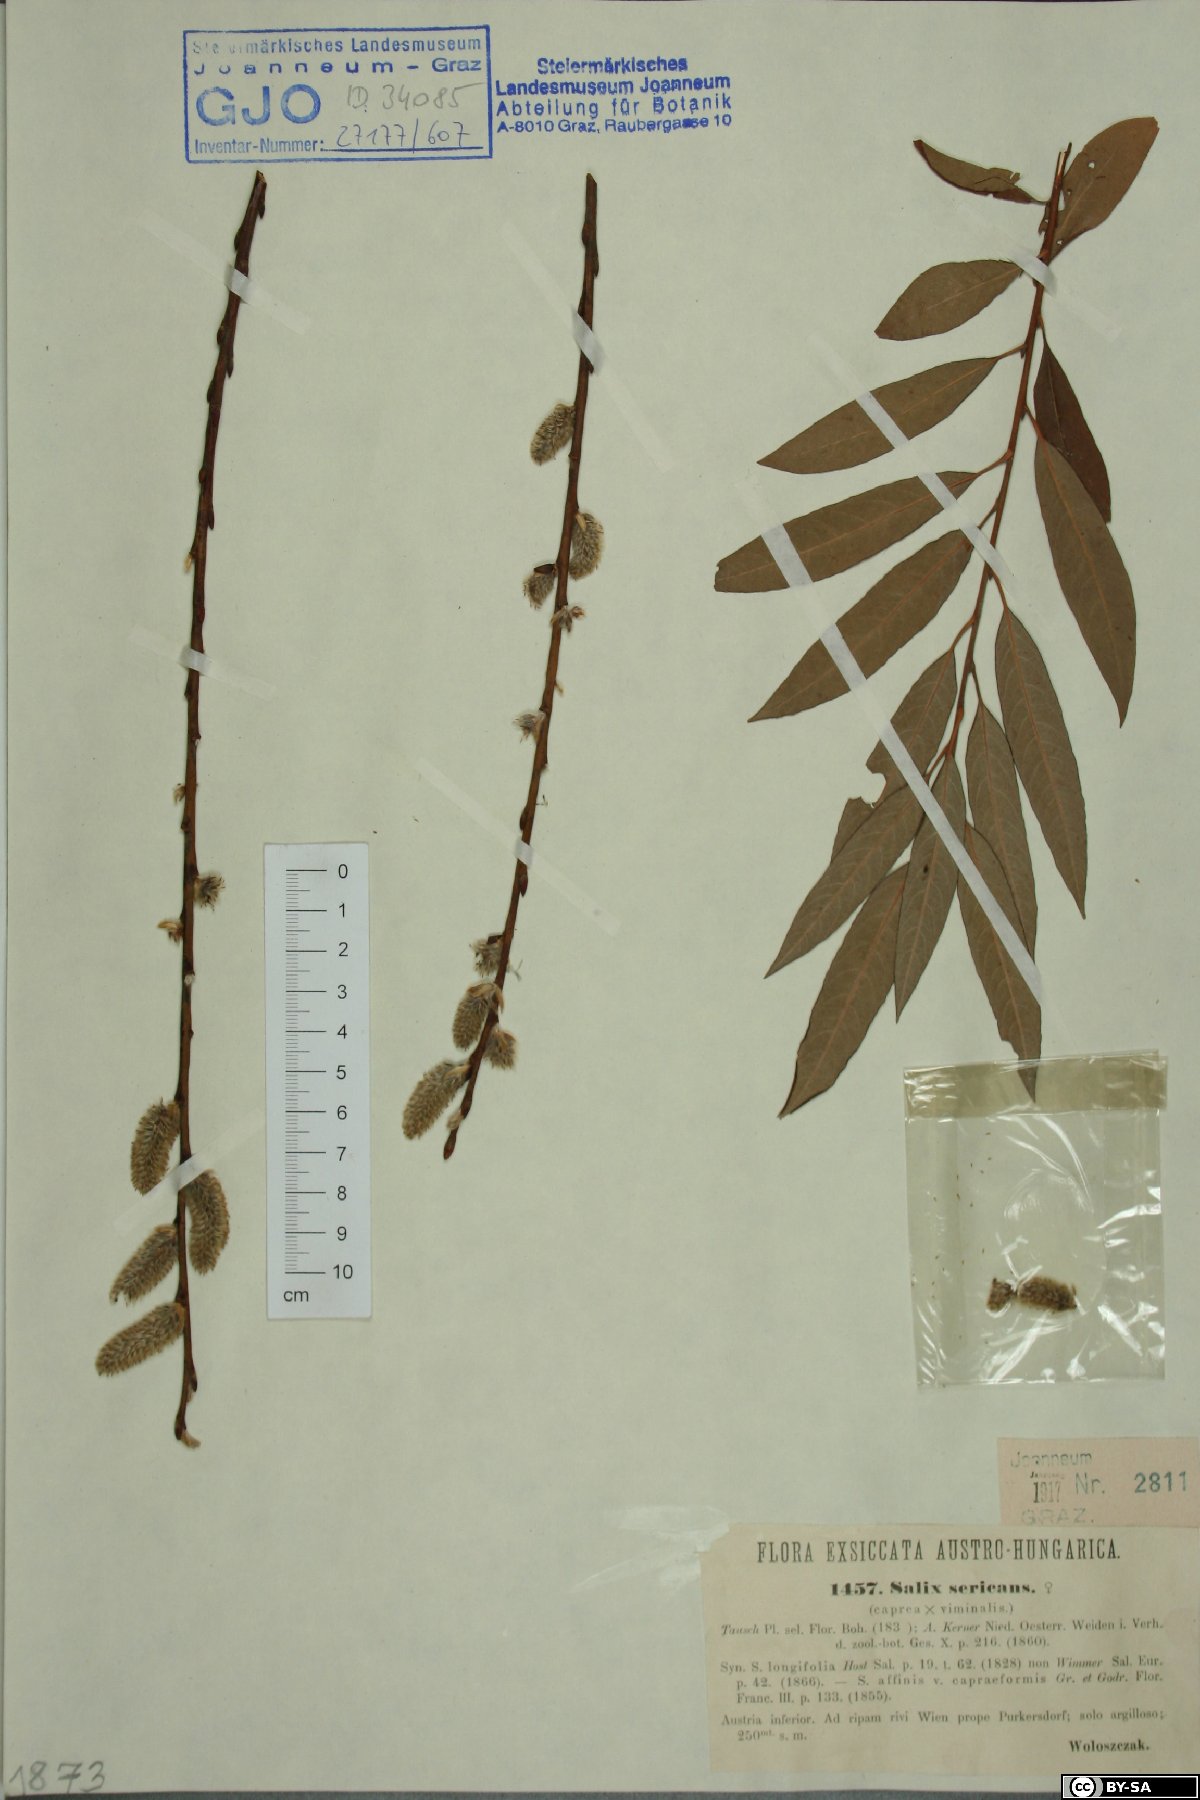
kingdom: Plantae
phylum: Tracheophyta
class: Magnoliopsida
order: Malpighiales
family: Salicaceae
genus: Salix
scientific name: Salix gmelinii
